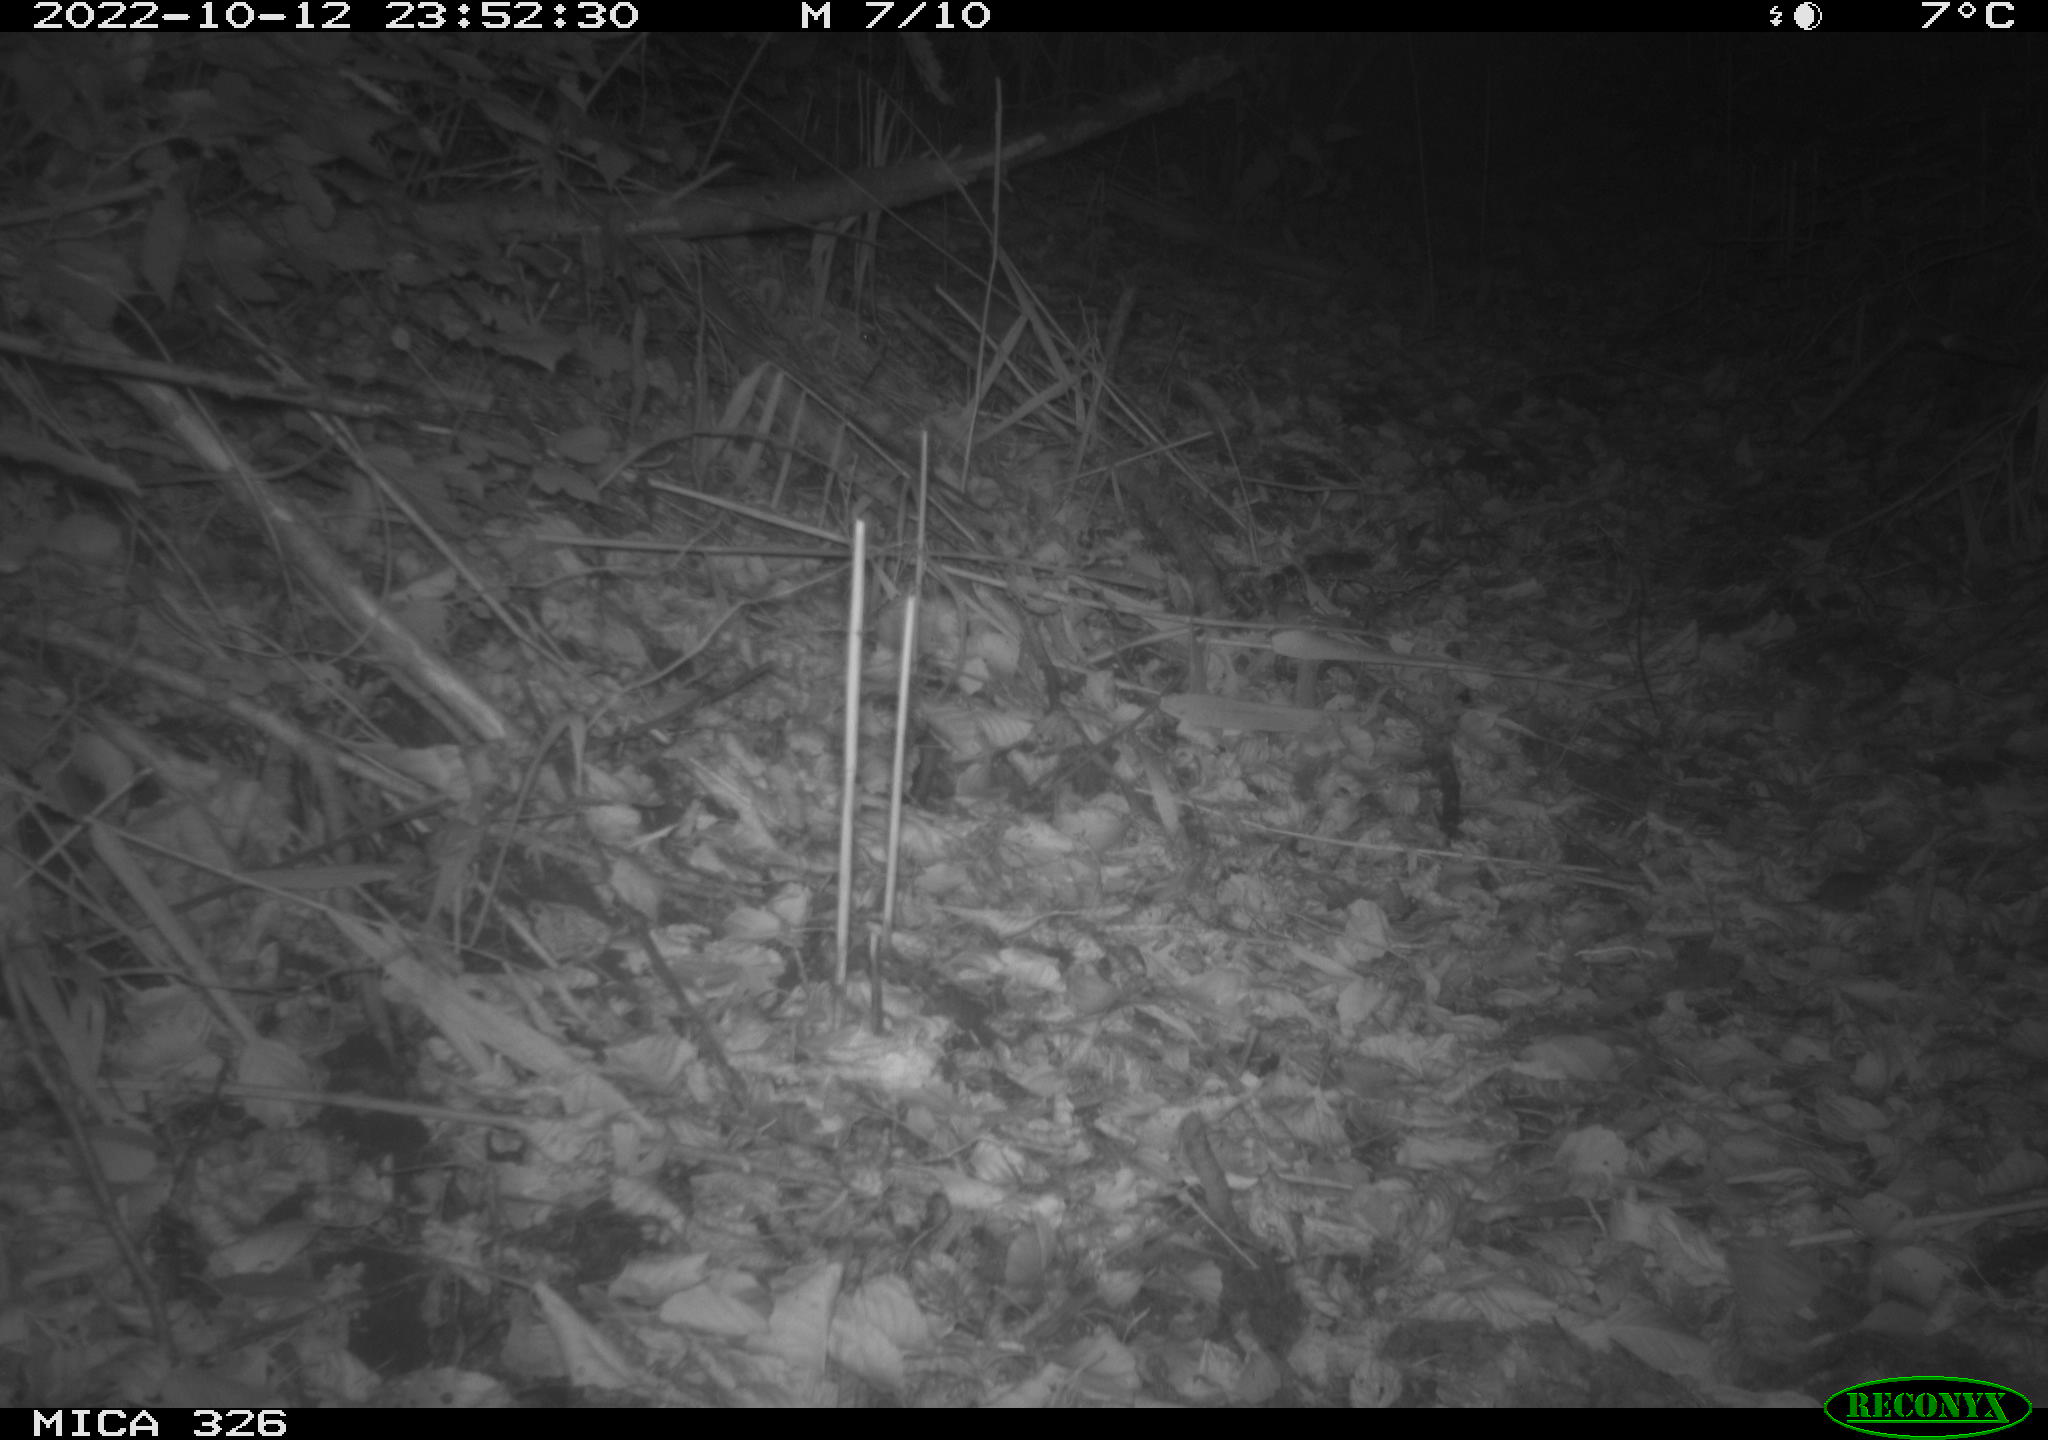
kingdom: Animalia
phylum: Chordata
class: Mammalia
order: Rodentia
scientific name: Rodentia
